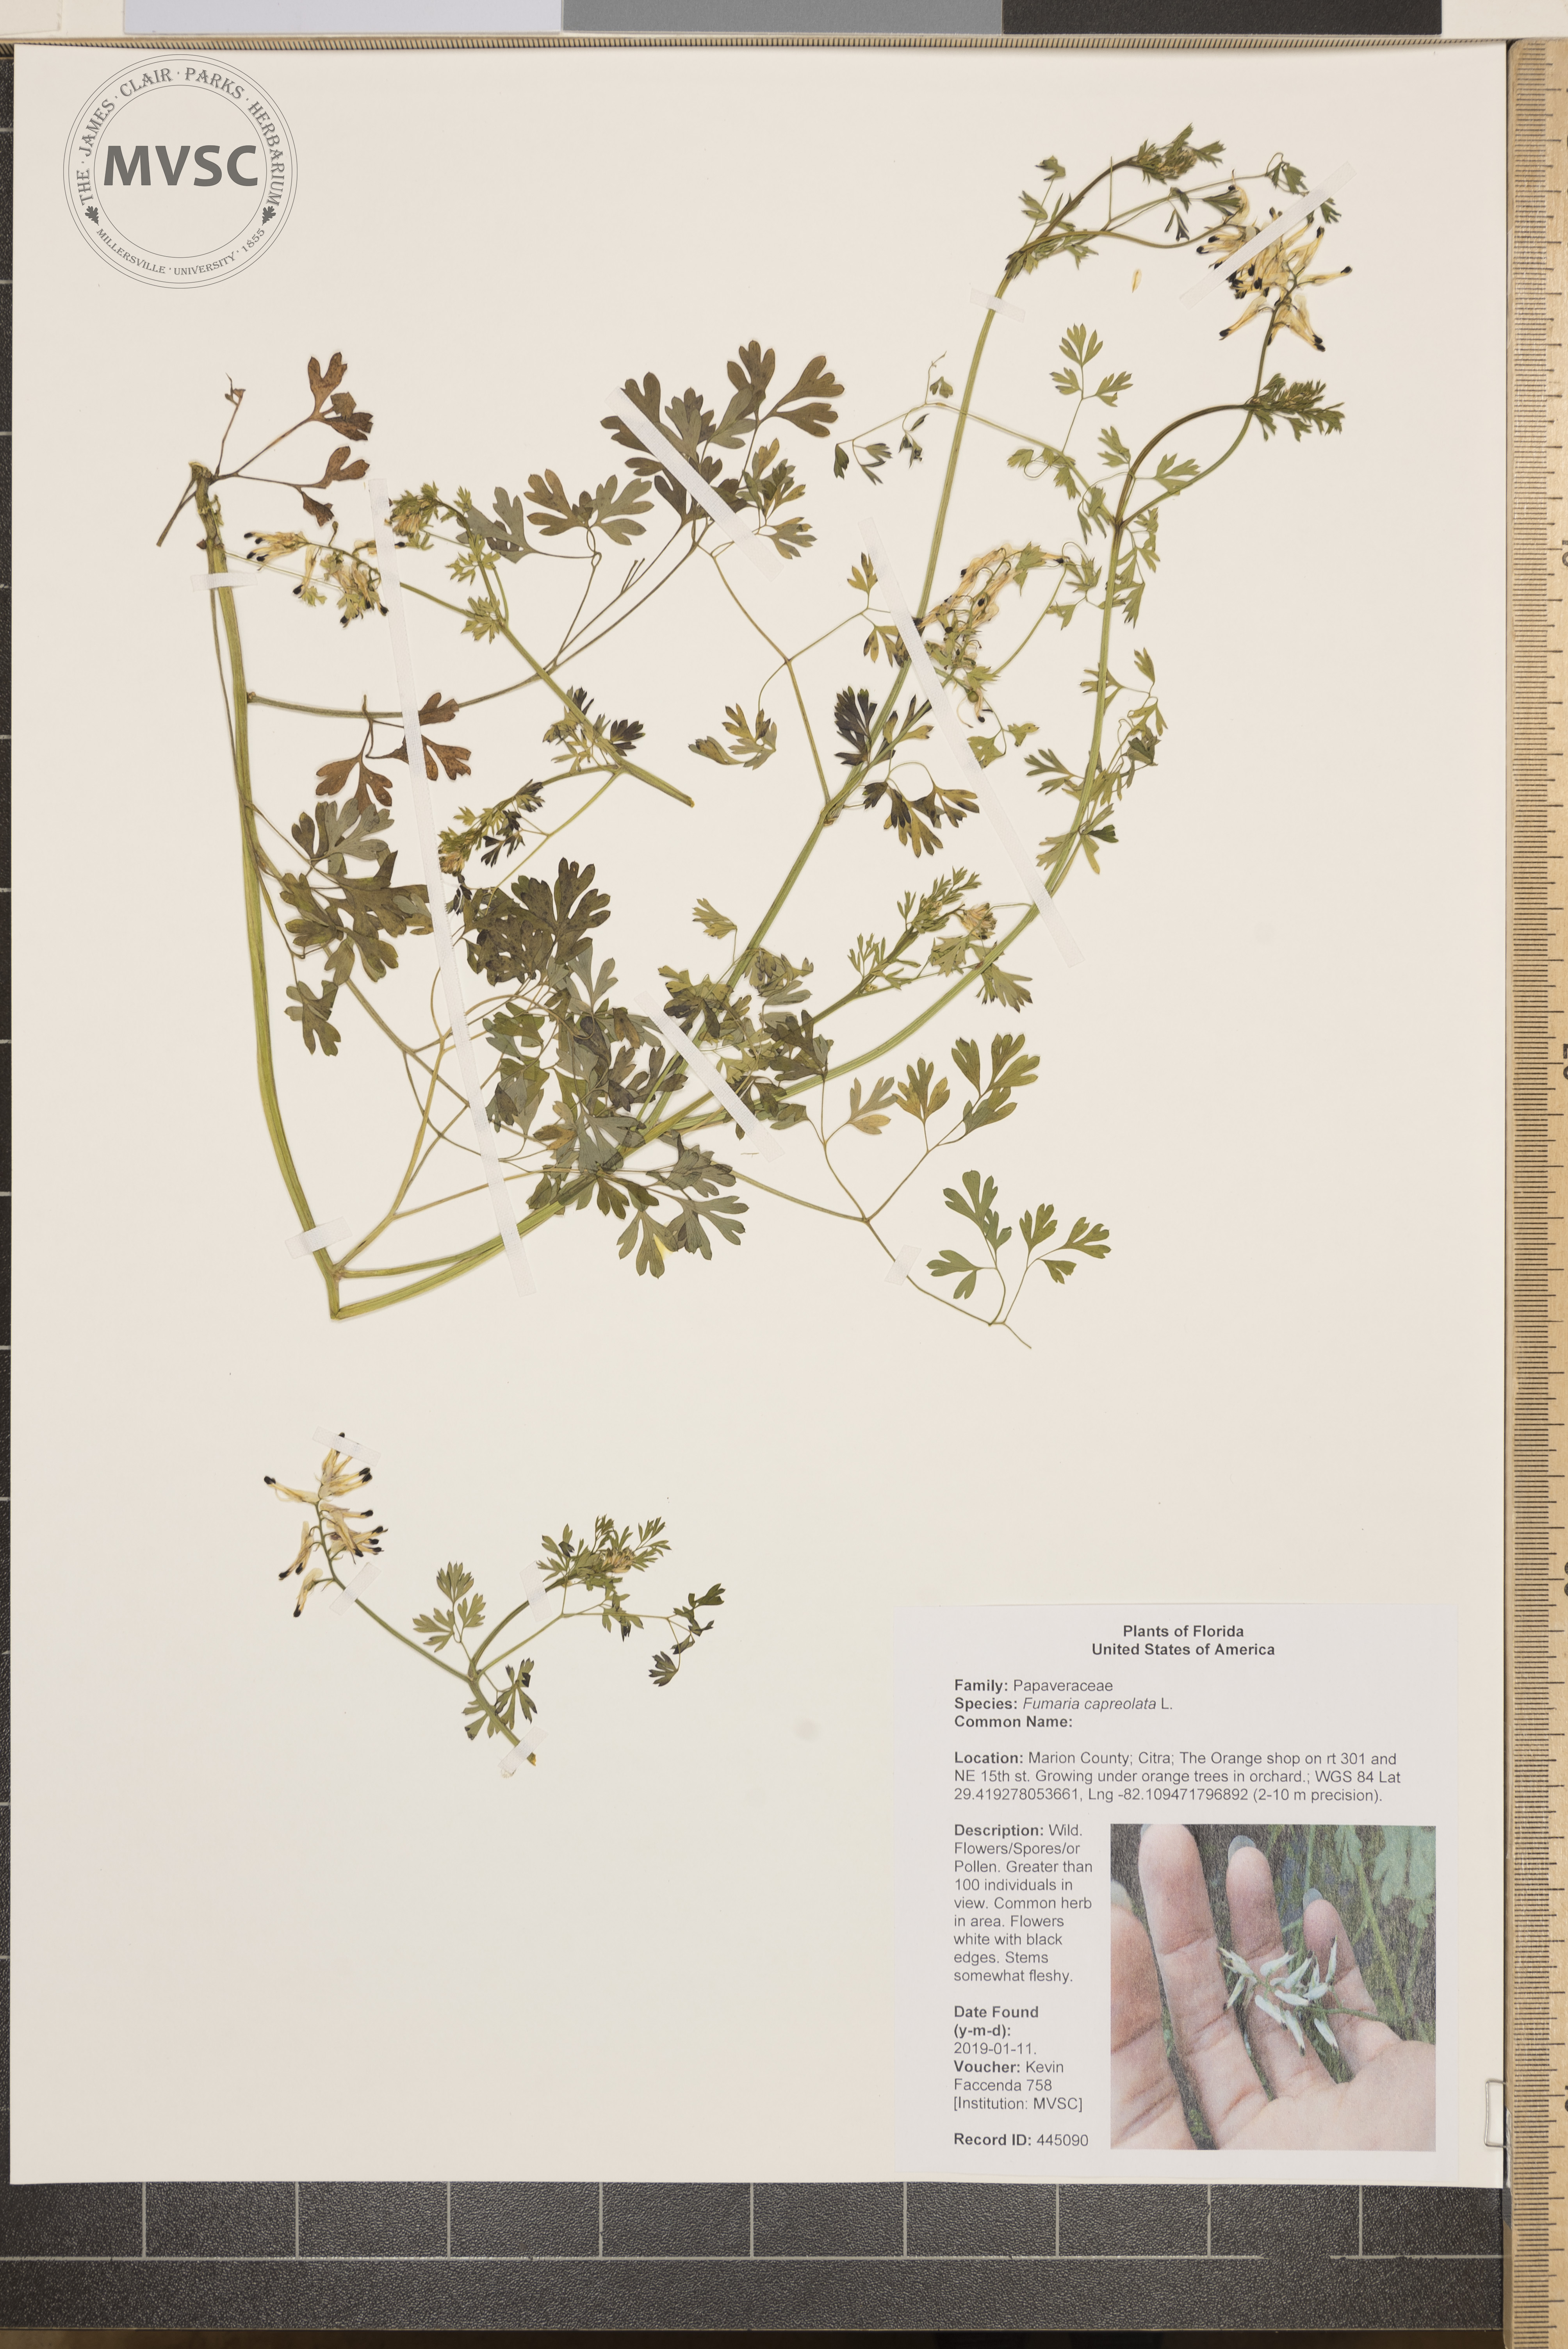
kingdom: Plantae
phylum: Tracheophyta
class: Magnoliopsida
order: Ranunculales
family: Papaveraceae
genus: Fumaria
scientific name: Fumaria capreolata
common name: White ramping-fumitory
